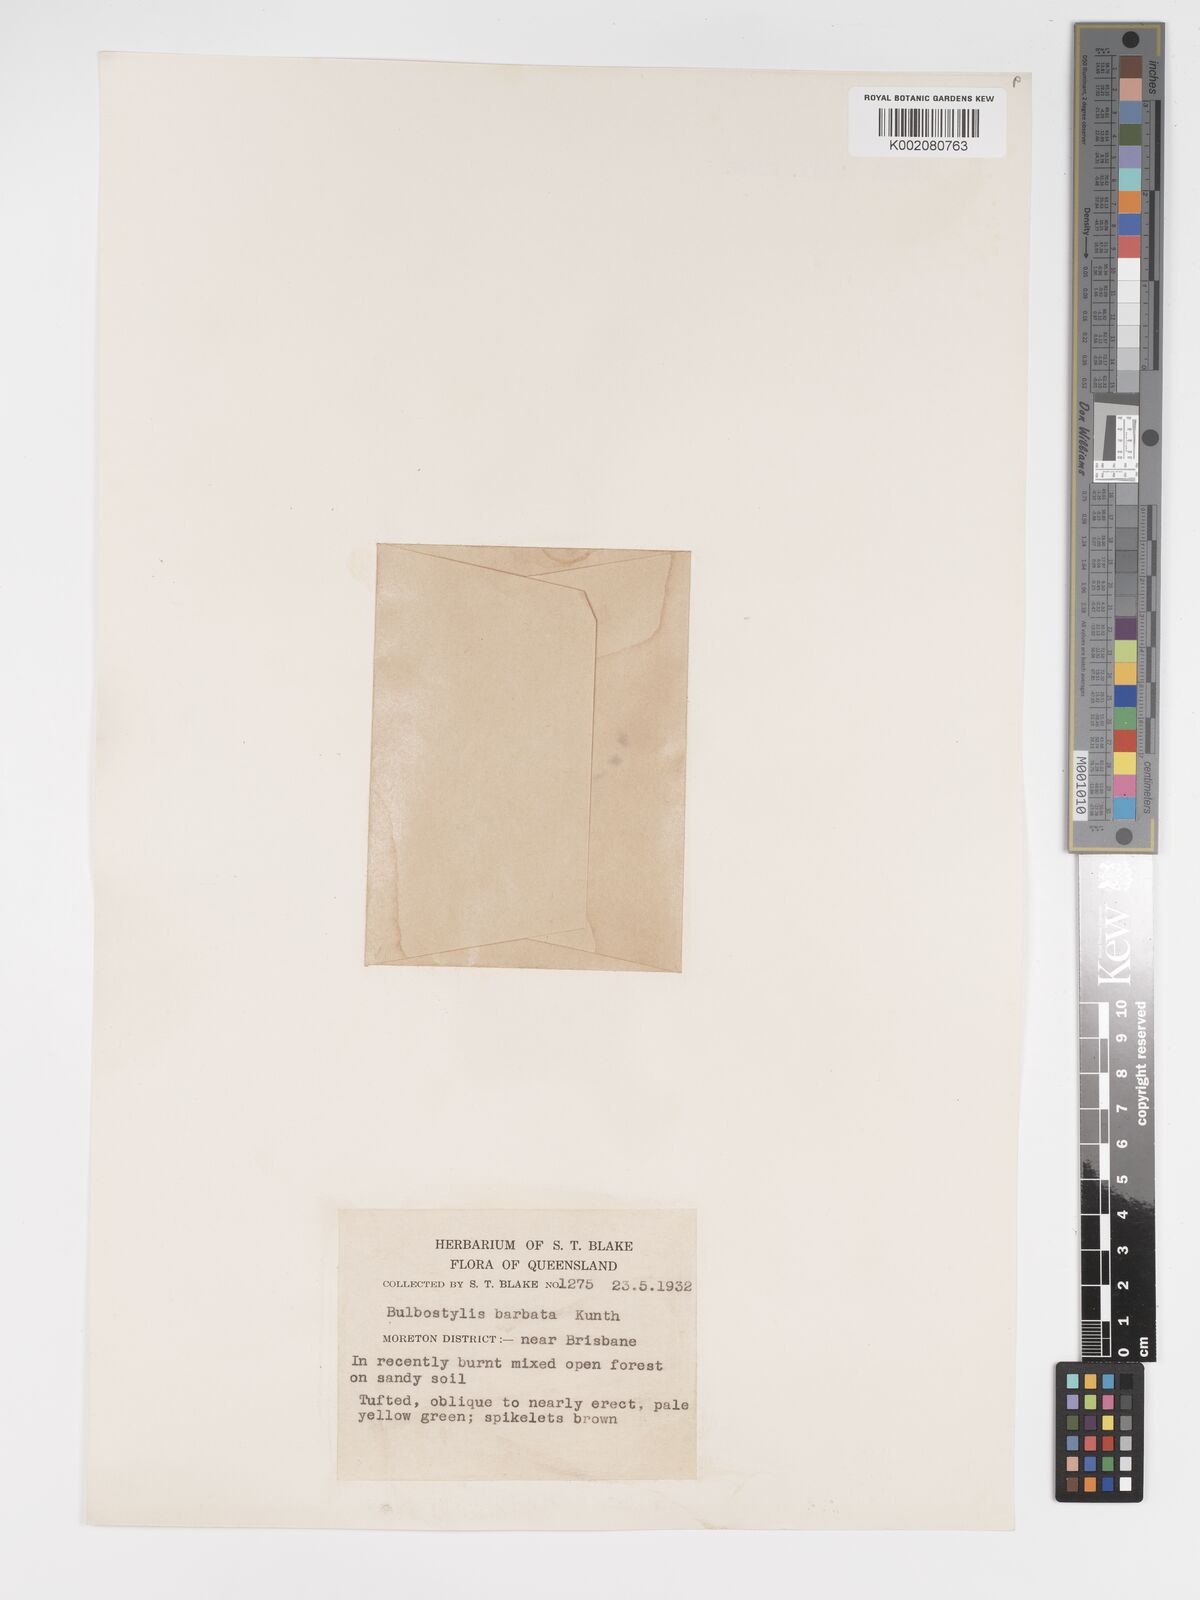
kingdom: Plantae
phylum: Tracheophyta
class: Liliopsida
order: Poales
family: Cyperaceae
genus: Bulbostylis
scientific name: Bulbostylis barbata
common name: Watergrass
